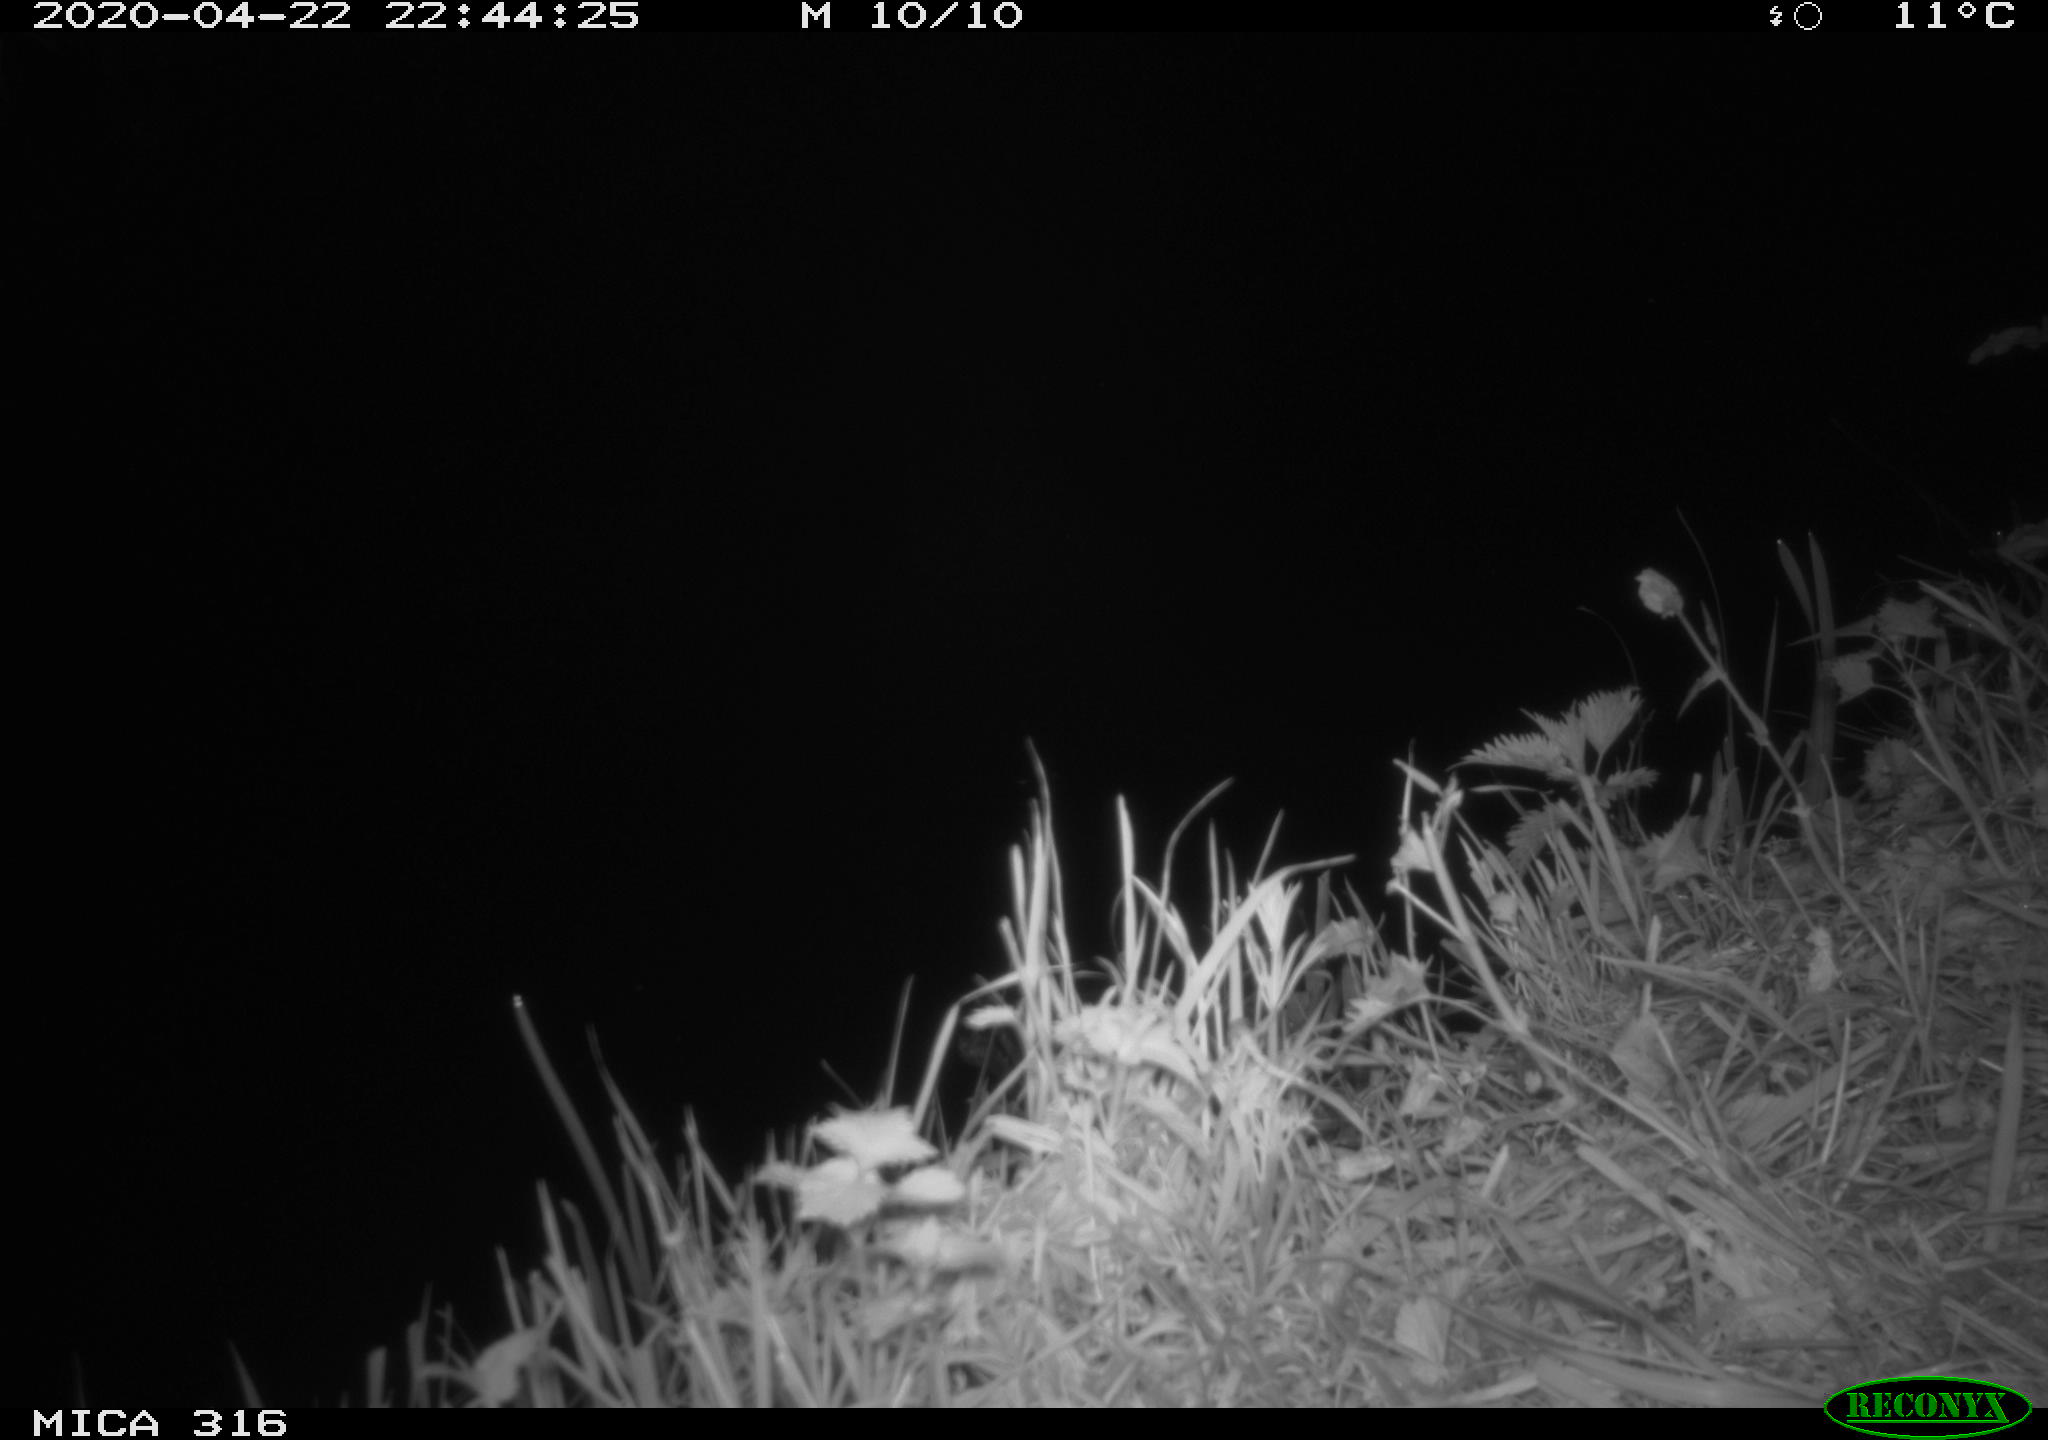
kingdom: Animalia
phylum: Chordata
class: Aves
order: Gruiformes
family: Rallidae
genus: Gallinula
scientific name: Gallinula chloropus
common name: Common moorhen
